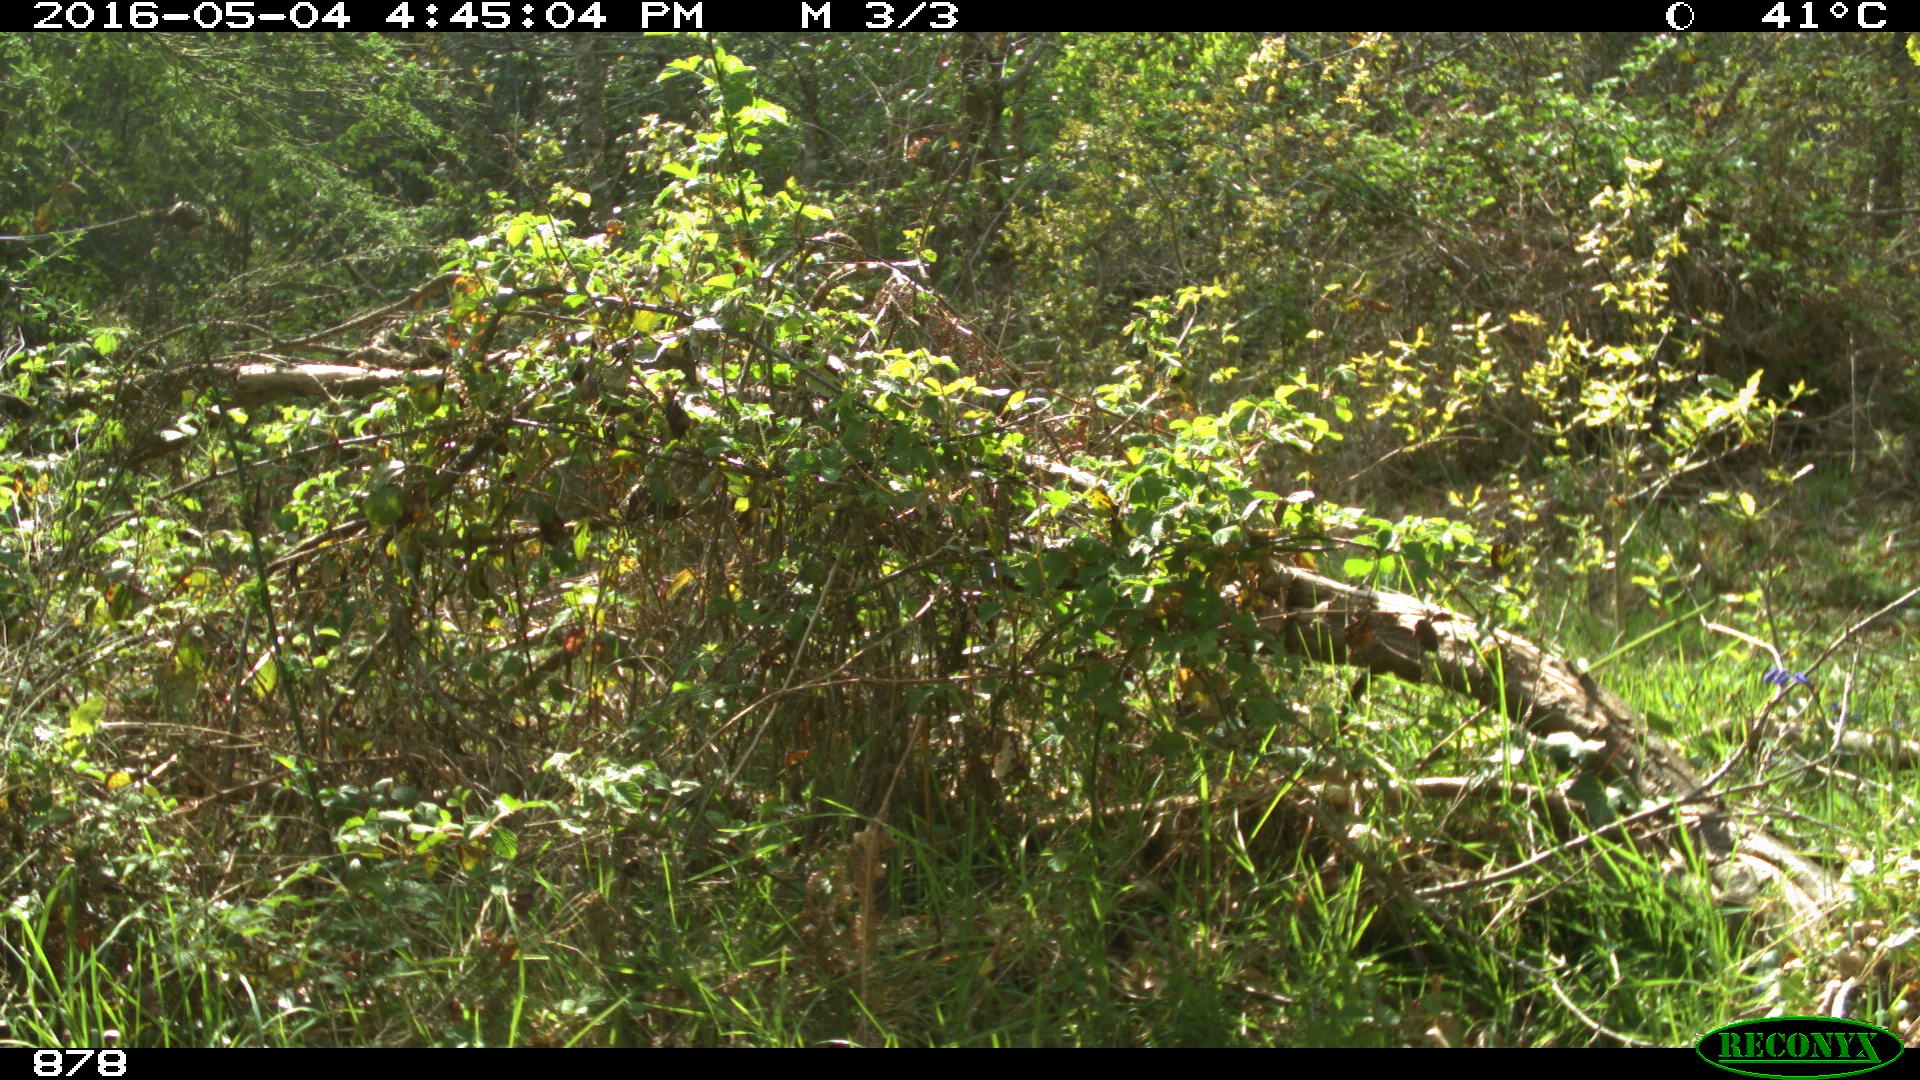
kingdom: Animalia
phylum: Chordata
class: Mammalia
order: Carnivora
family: Canidae
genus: Vulpes
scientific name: Vulpes vulpes
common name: Red fox
